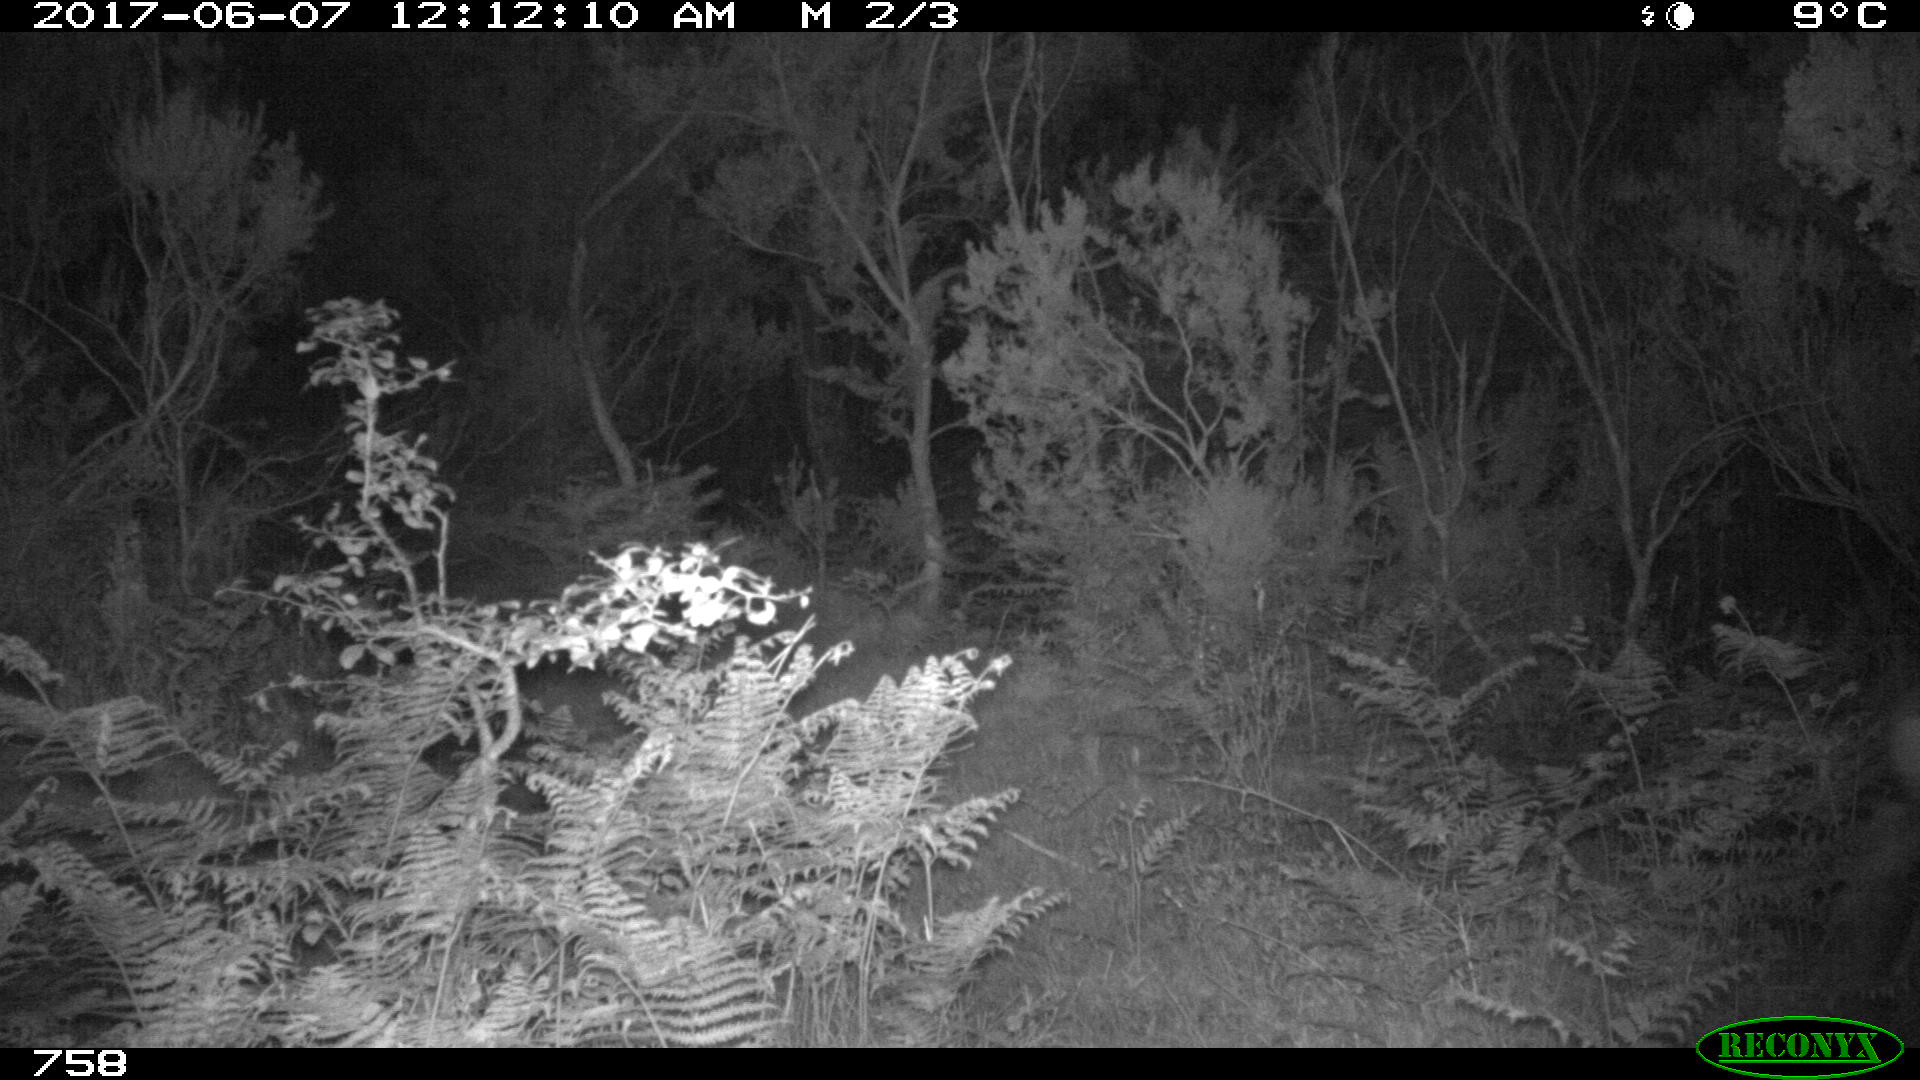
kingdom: Animalia
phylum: Chordata
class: Mammalia
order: Artiodactyla
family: Cervidae
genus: Capreolus
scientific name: Capreolus capreolus
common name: Western roe deer
